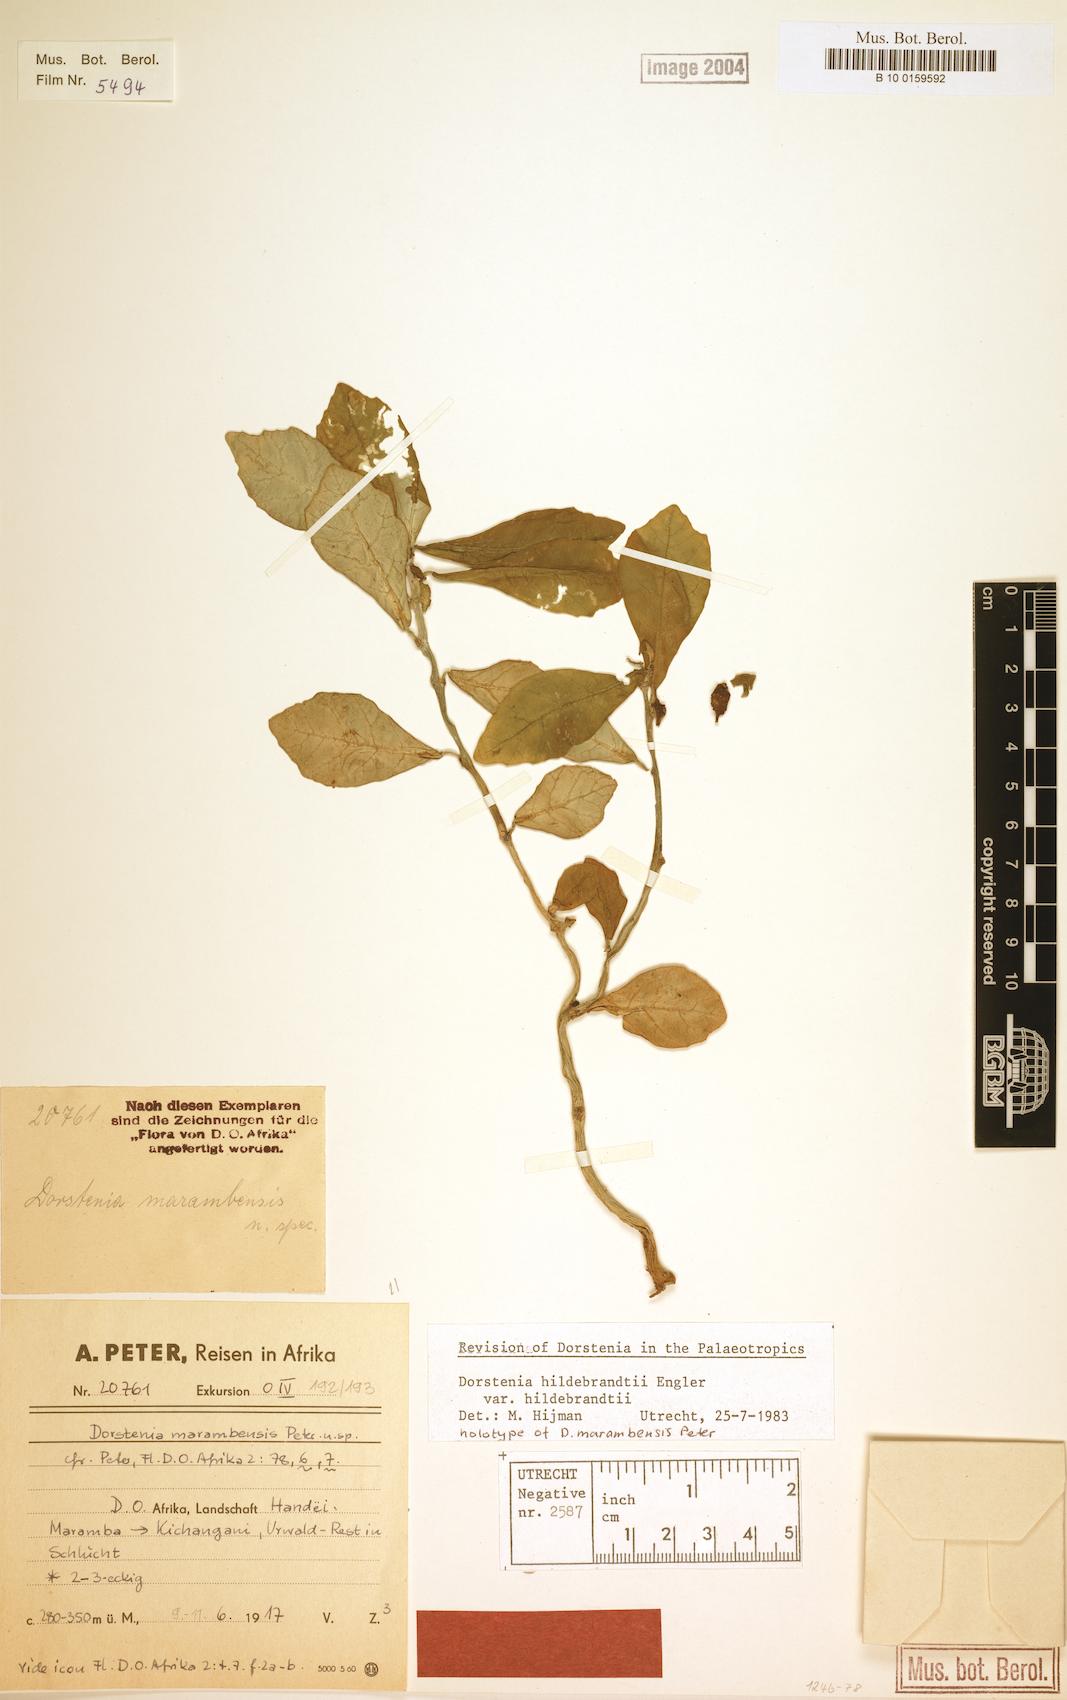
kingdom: Plantae
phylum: Tracheophyta
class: Magnoliopsida
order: Rosales
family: Moraceae
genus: Dorstenia
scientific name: Dorstenia hildebrandtii
